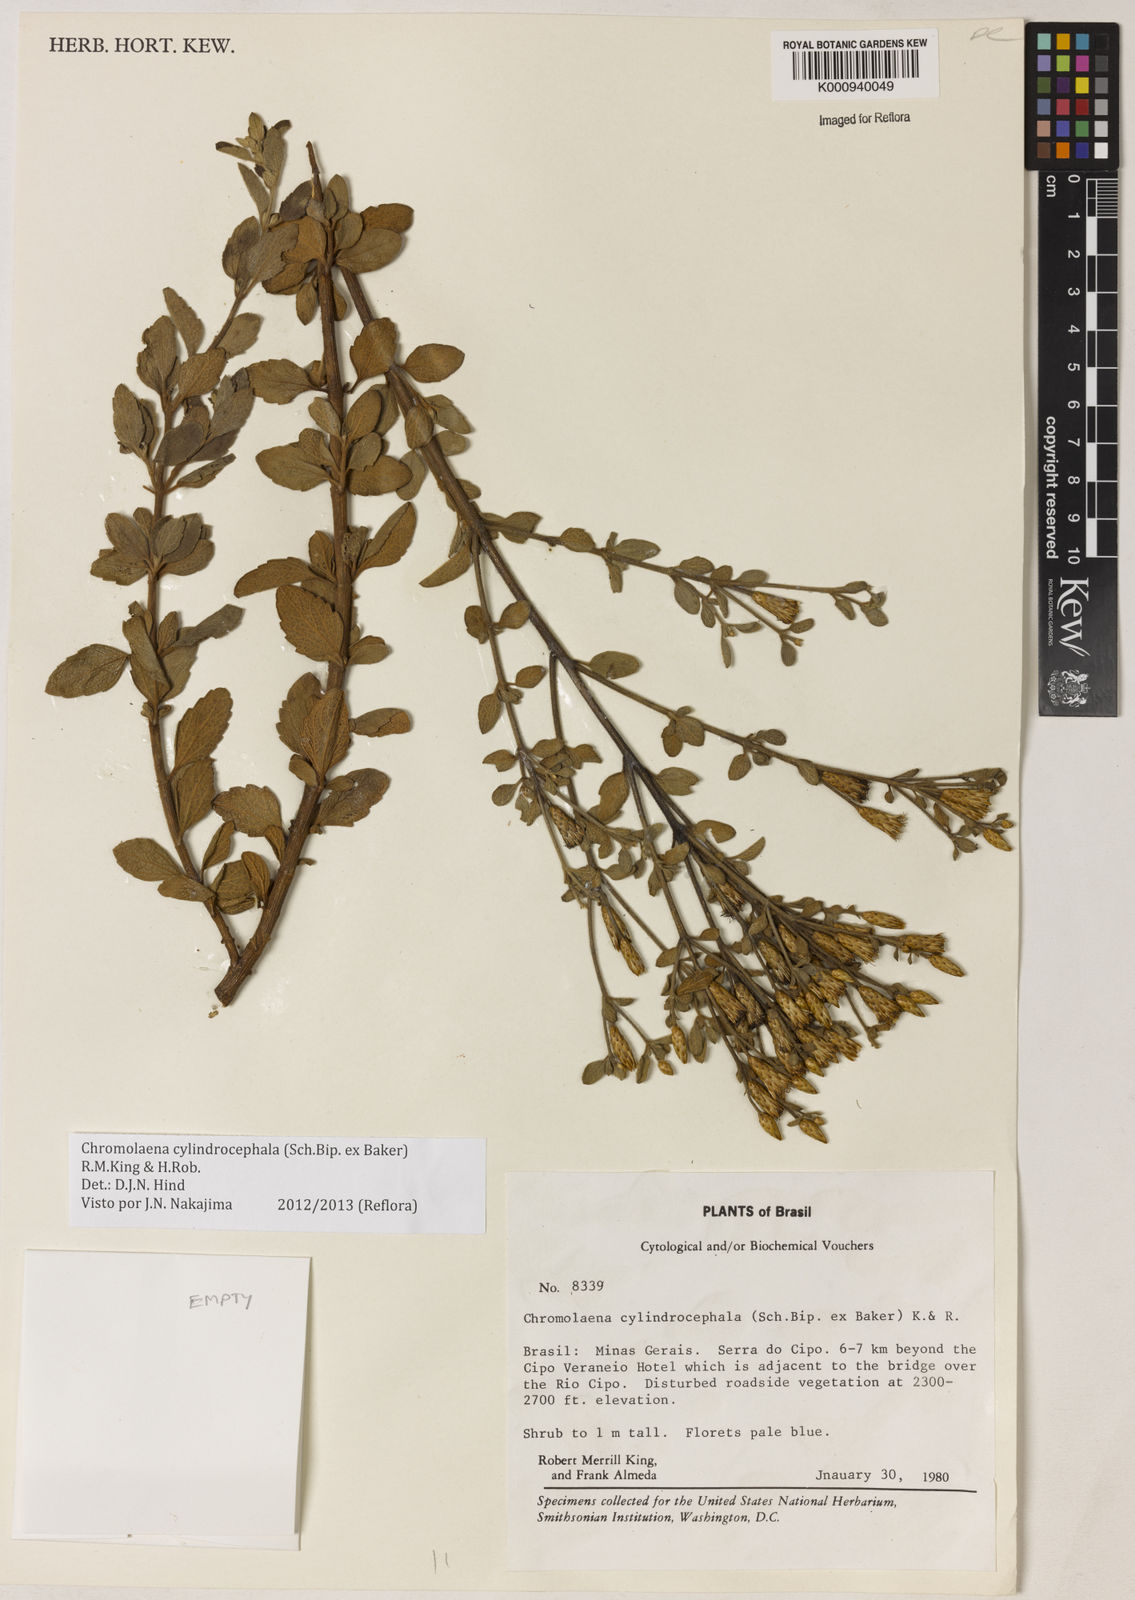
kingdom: Plantae
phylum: Tracheophyta
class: Magnoliopsida
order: Asterales
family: Asteraceae
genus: Chromolaena
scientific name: Chromolaena cylindrocephala
